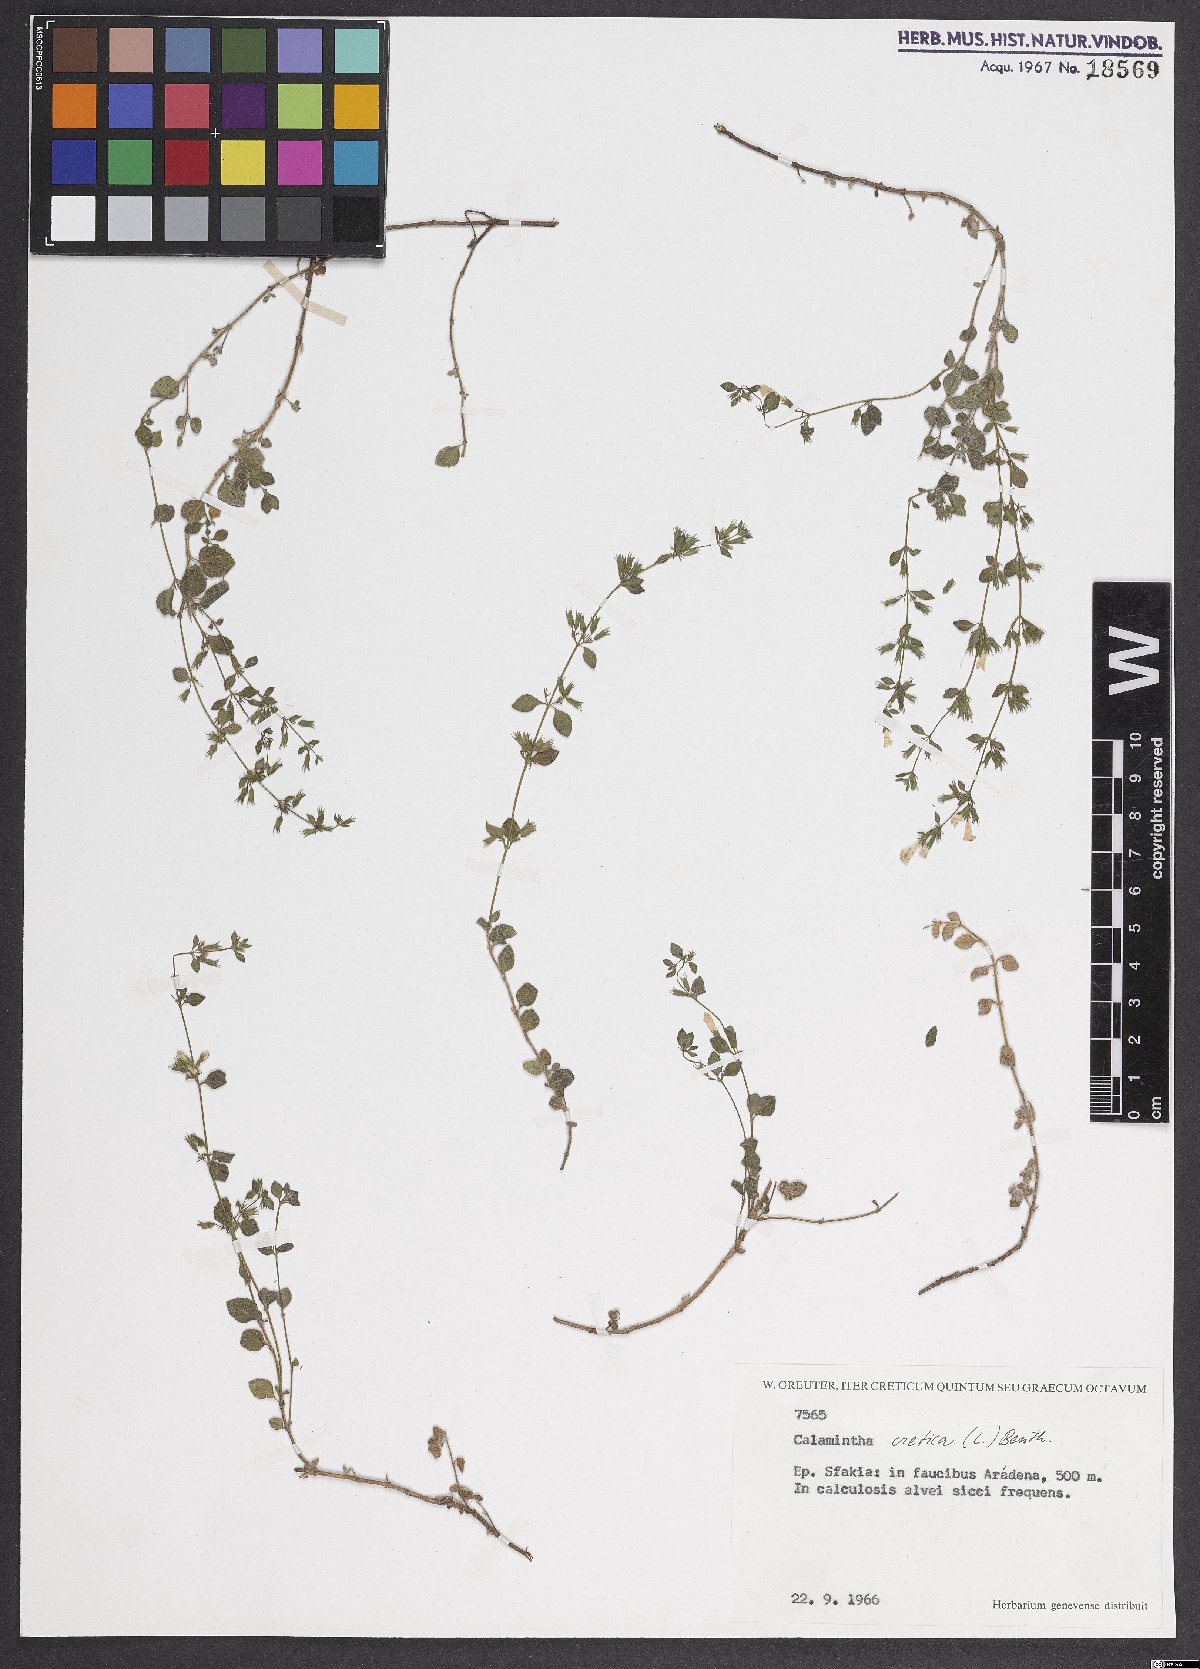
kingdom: Plantae
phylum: Tracheophyta
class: Magnoliopsida
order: Lamiales
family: Lamiaceae
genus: Clinopodium
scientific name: Clinopodium creticum
